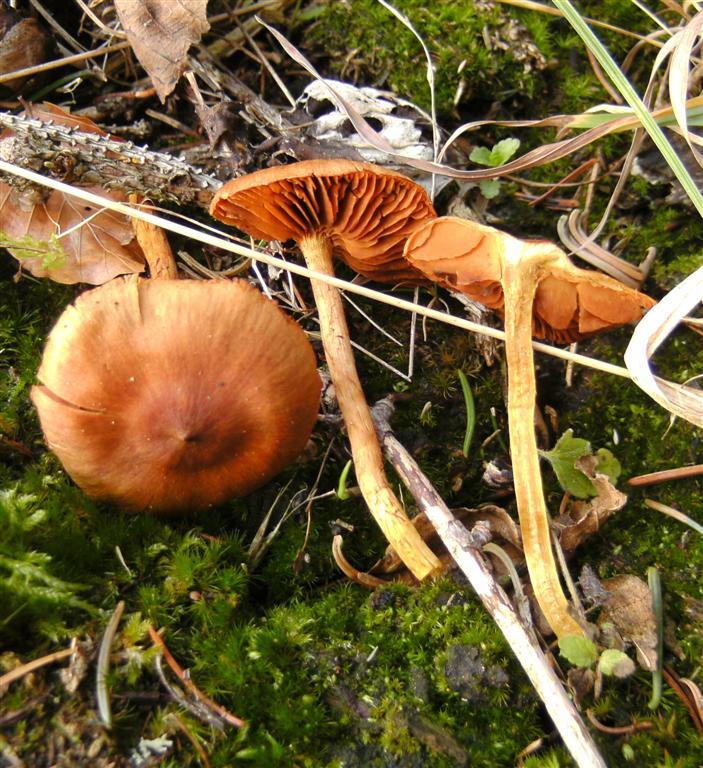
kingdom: Fungi
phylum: Basidiomycota
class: Agaricomycetes
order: Agaricales
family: Cortinariaceae
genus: Cortinarius
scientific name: Cortinarius cinnamomeus
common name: kanel-slørhat
